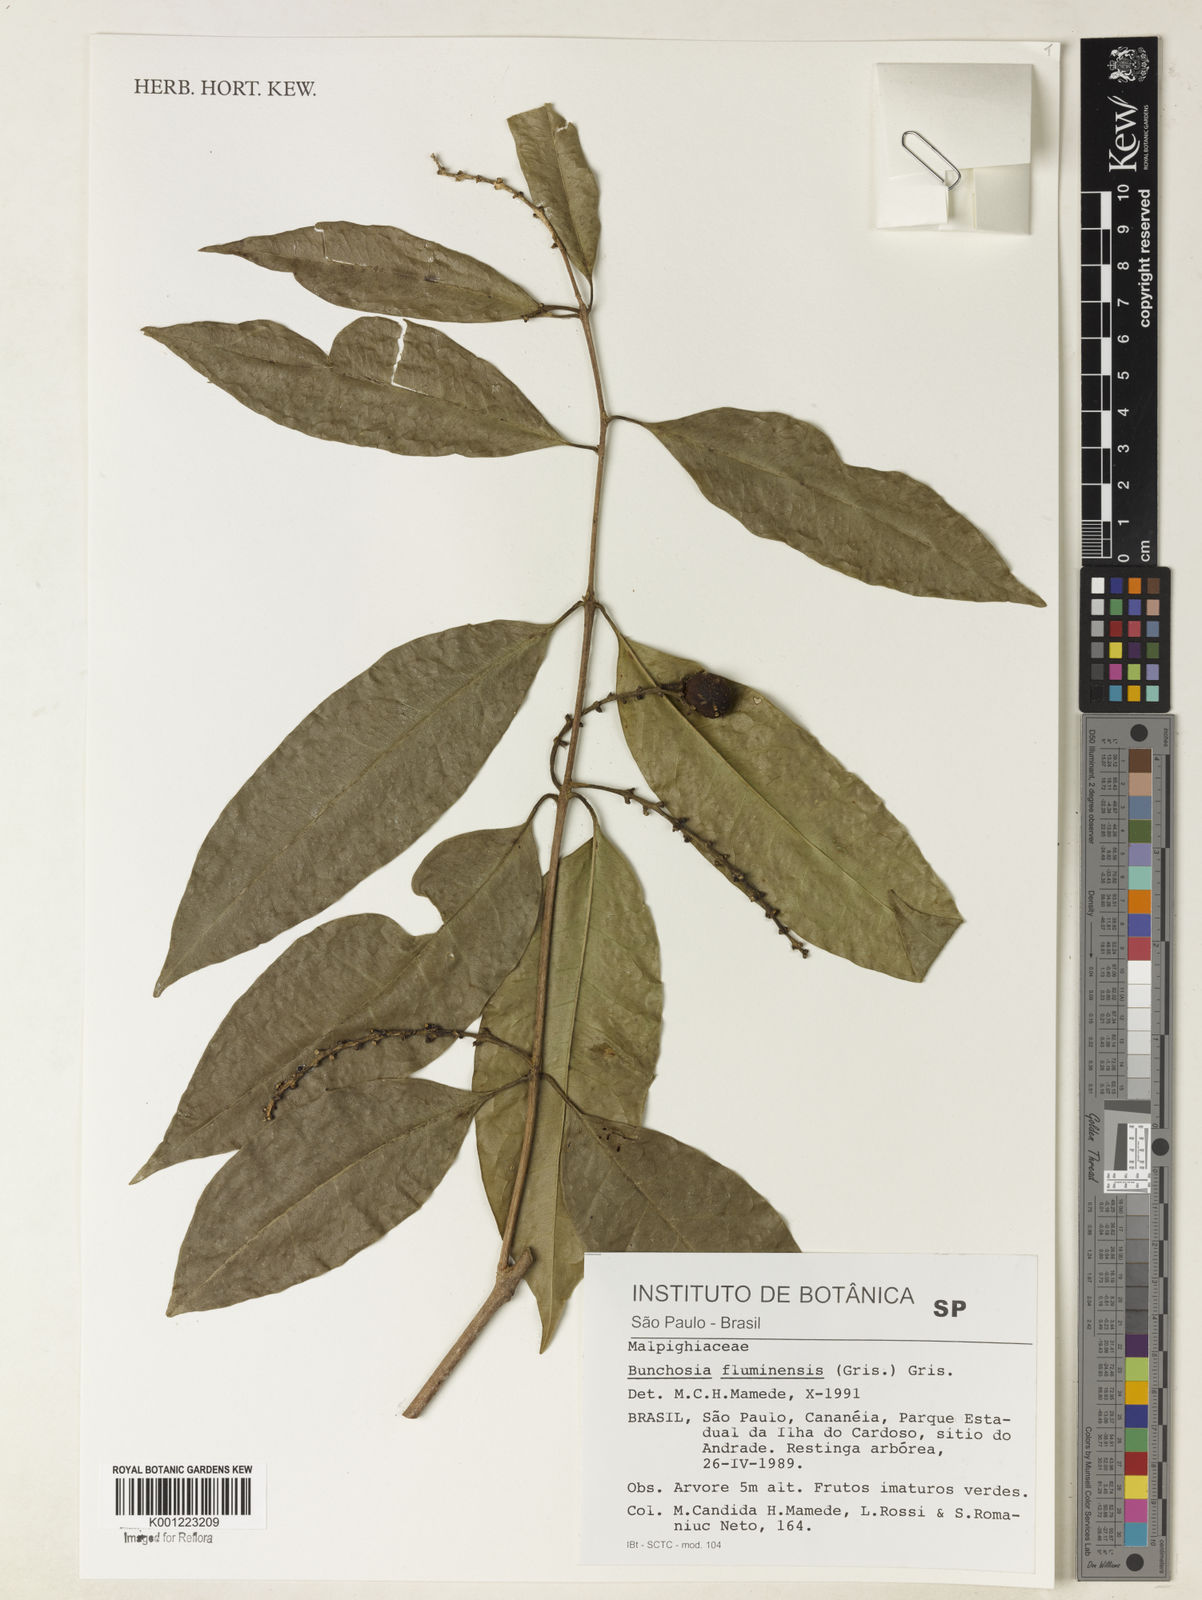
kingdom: Plantae
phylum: Tracheophyta
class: Magnoliopsida
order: Malpighiales
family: Malpighiaceae
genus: Bunchosia
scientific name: Bunchosia fluminensis
